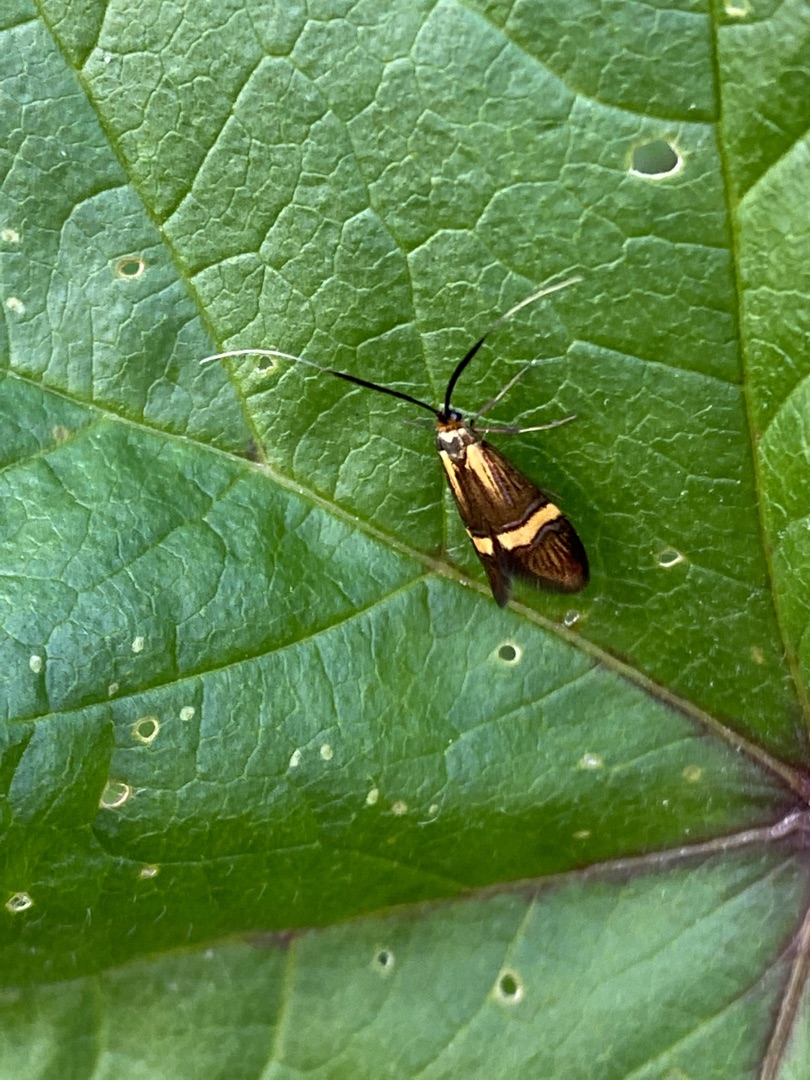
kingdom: Animalia
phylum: Arthropoda
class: Insecta
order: Lepidoptera
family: Adelidae
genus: Nemophora
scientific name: Nemophora degeerella
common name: Løvskovslanghornsmøl
